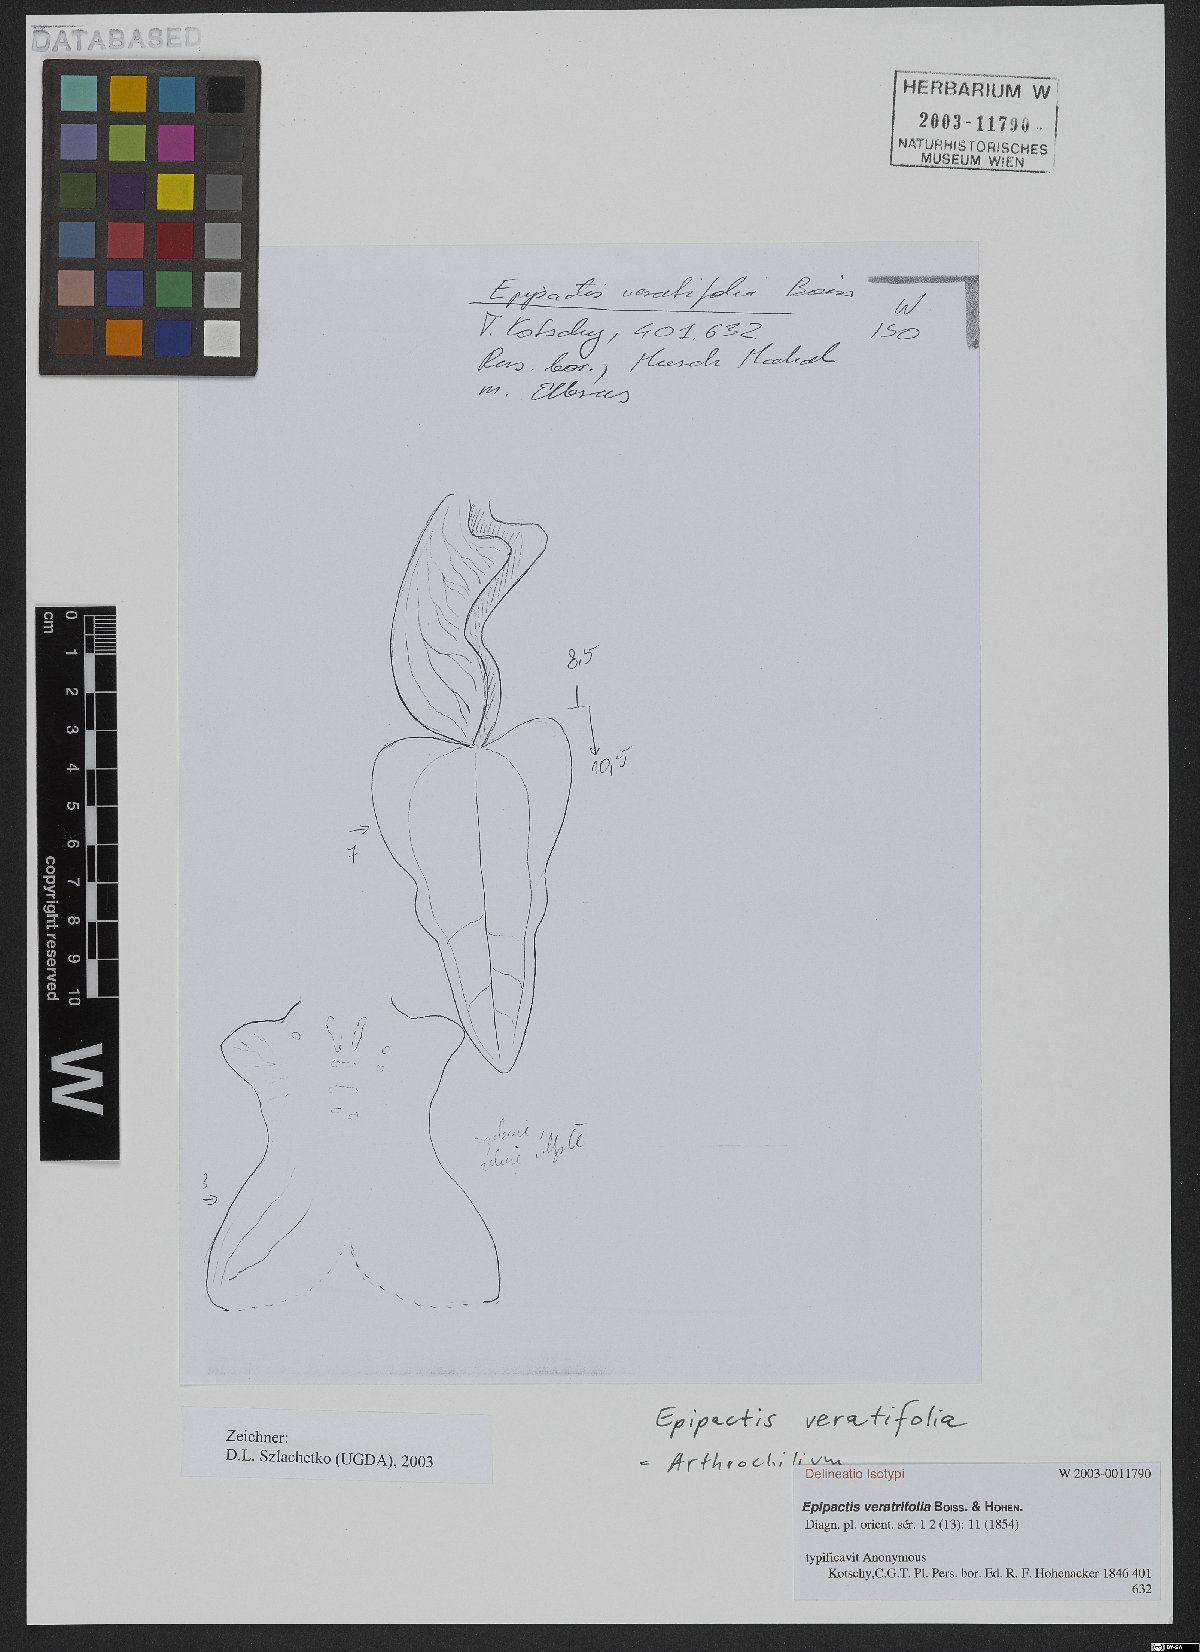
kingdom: Plantae
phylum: Tracheophyta
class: Liliopsida
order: Asparagales
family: Orchidaceae
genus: Epipactis
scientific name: Epipactis veratrifolia
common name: Eastern marsh helleborine
